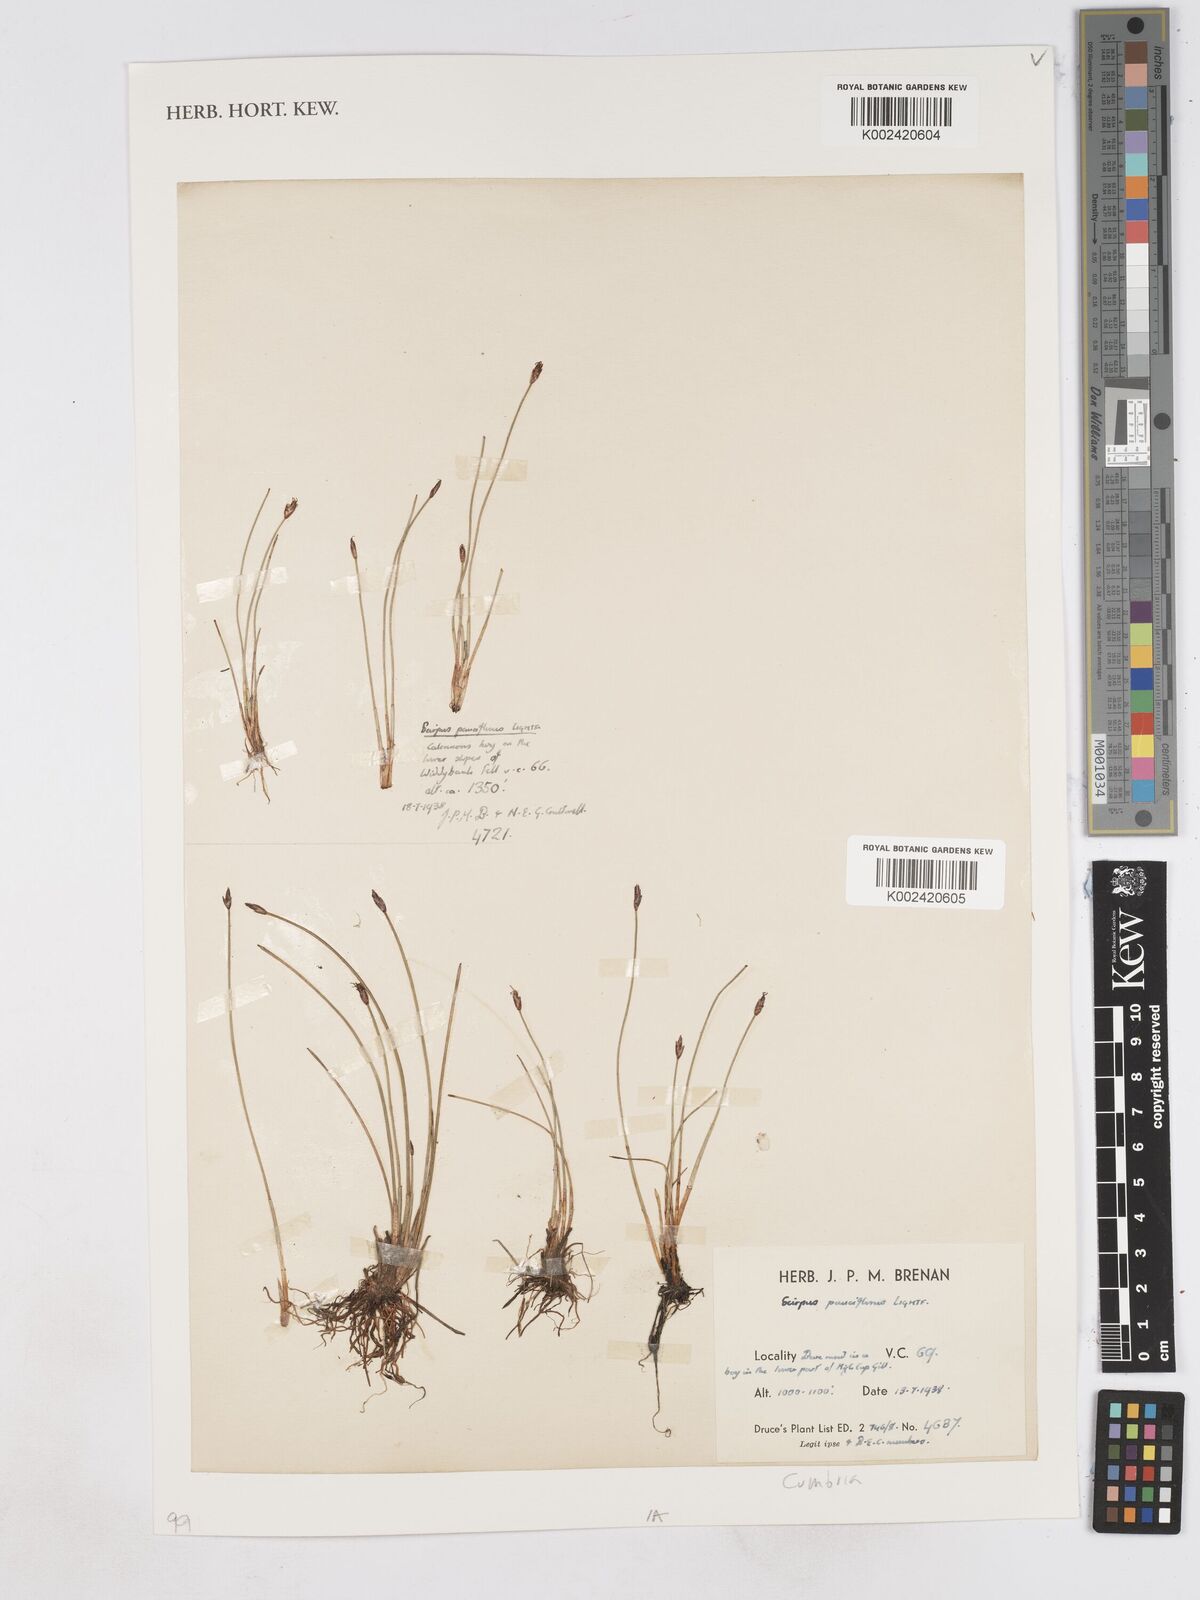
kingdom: Plantae
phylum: Tracheophyta
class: Liliopsida
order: Poales
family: Cyperaceae
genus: Eleocharis
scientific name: Eleocharis quinqueflora
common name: Few-flowered spike-rush
